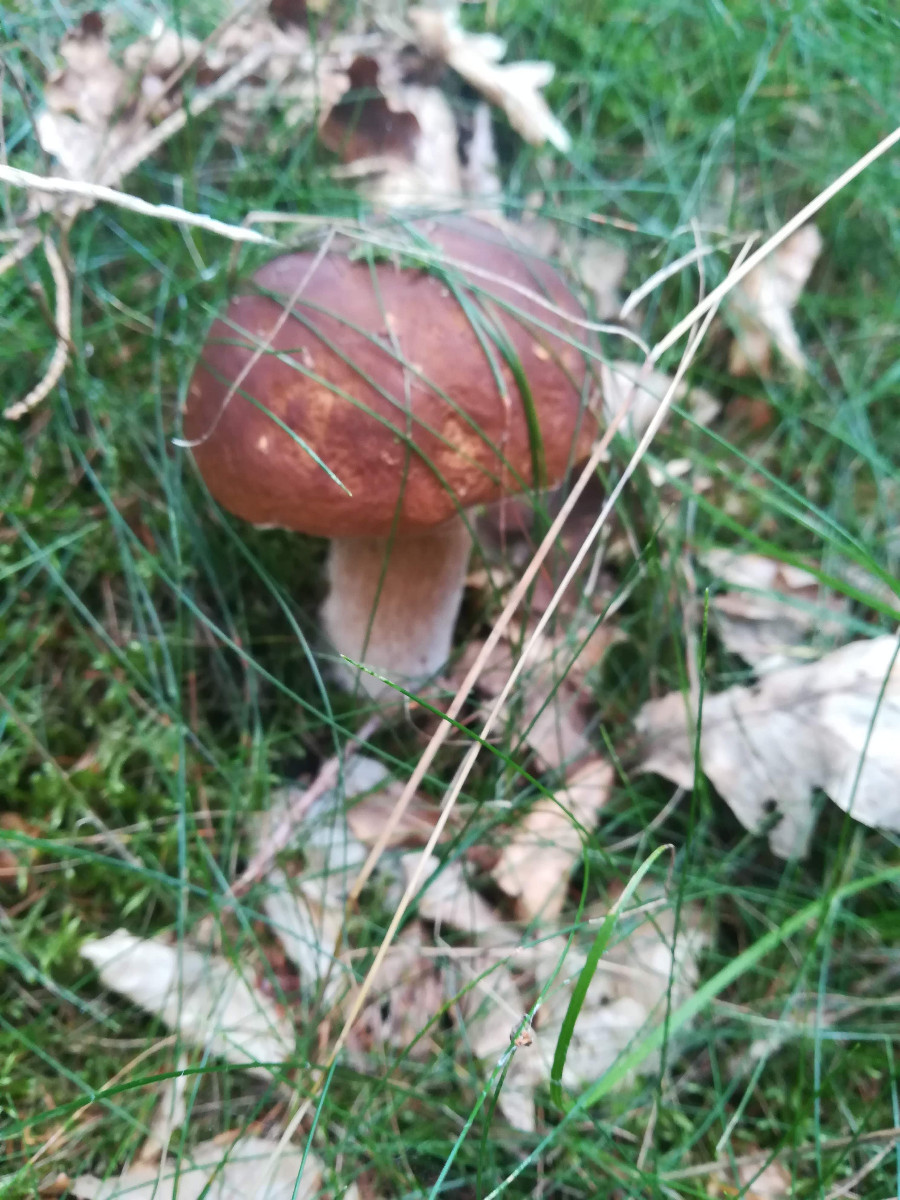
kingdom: Fungi
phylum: Basidiomycota
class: Agaricomycetes
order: Boletales
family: Boletaceae
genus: Boletus
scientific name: Boletus edulis
